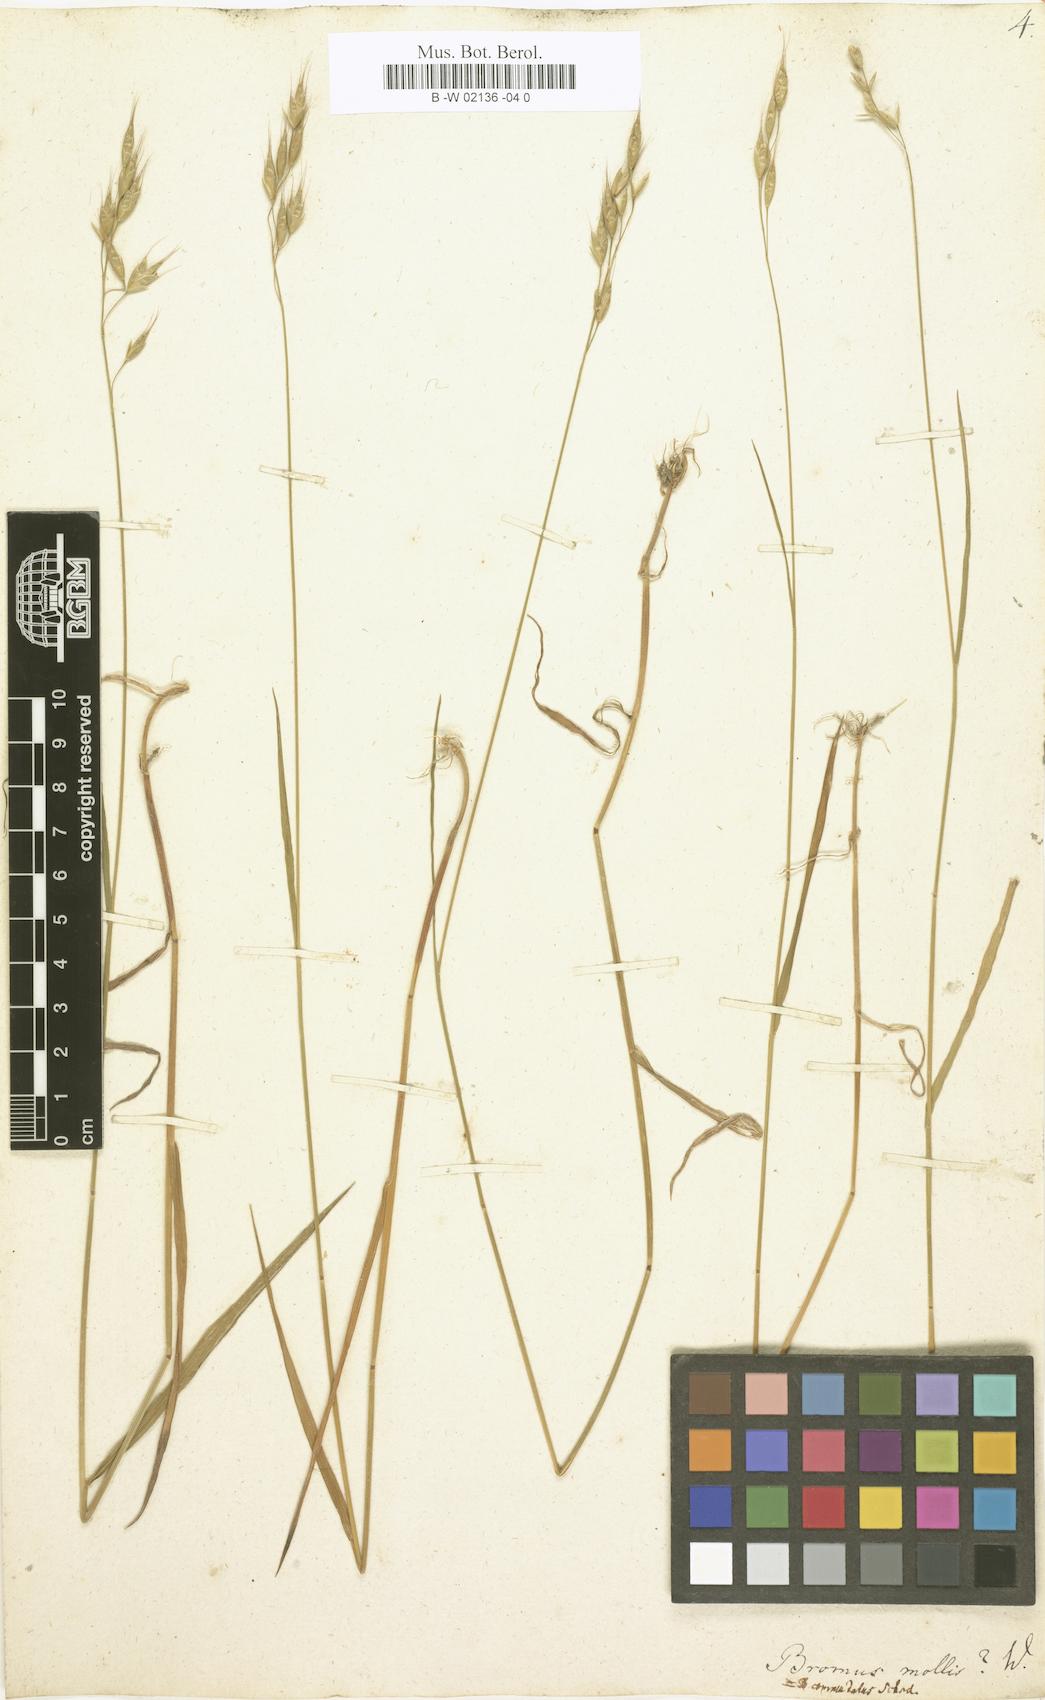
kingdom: Plantae
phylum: Tracheophyta
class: Liliopsida
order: Poales
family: Poaceae
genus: Bromus
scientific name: Bromus hordeaceus
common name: Soft brome
